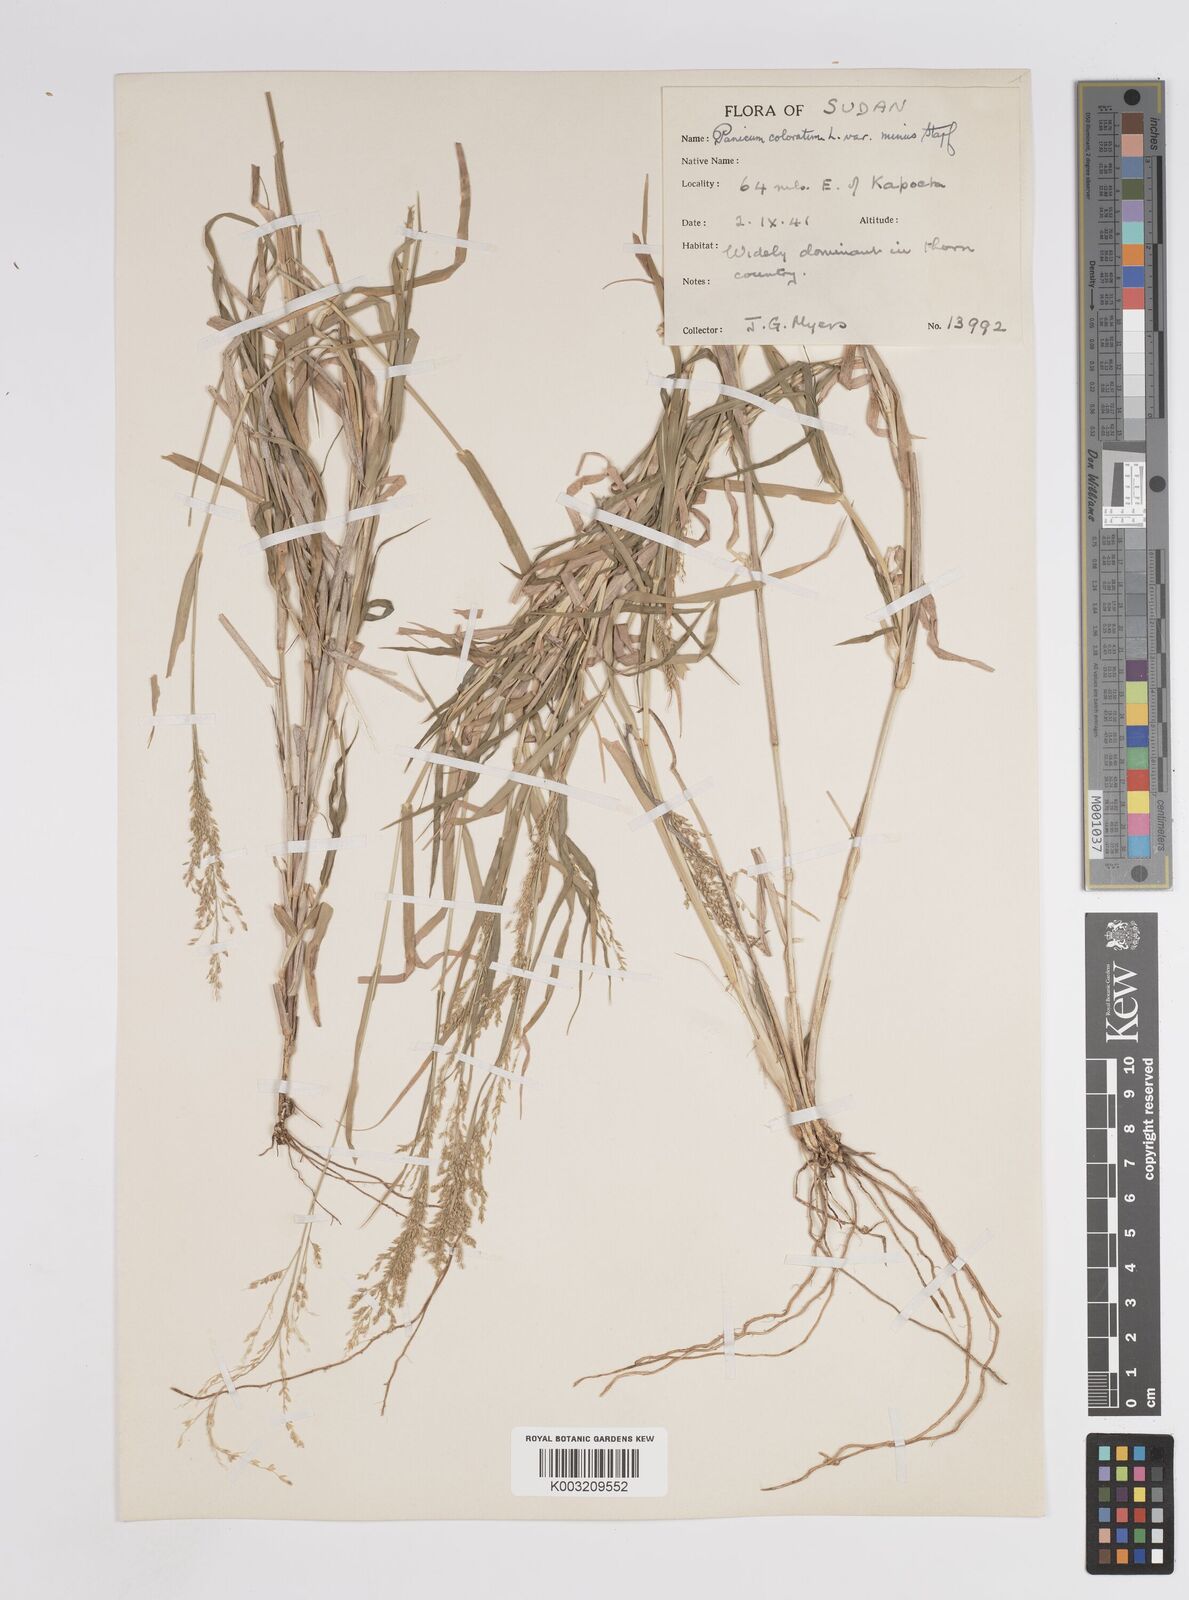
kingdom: Plantae
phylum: Tracheophyta
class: Liliopsida
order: Poales
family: Poaceae
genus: Panicum
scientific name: Panicum coloratum
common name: Kleingrass
